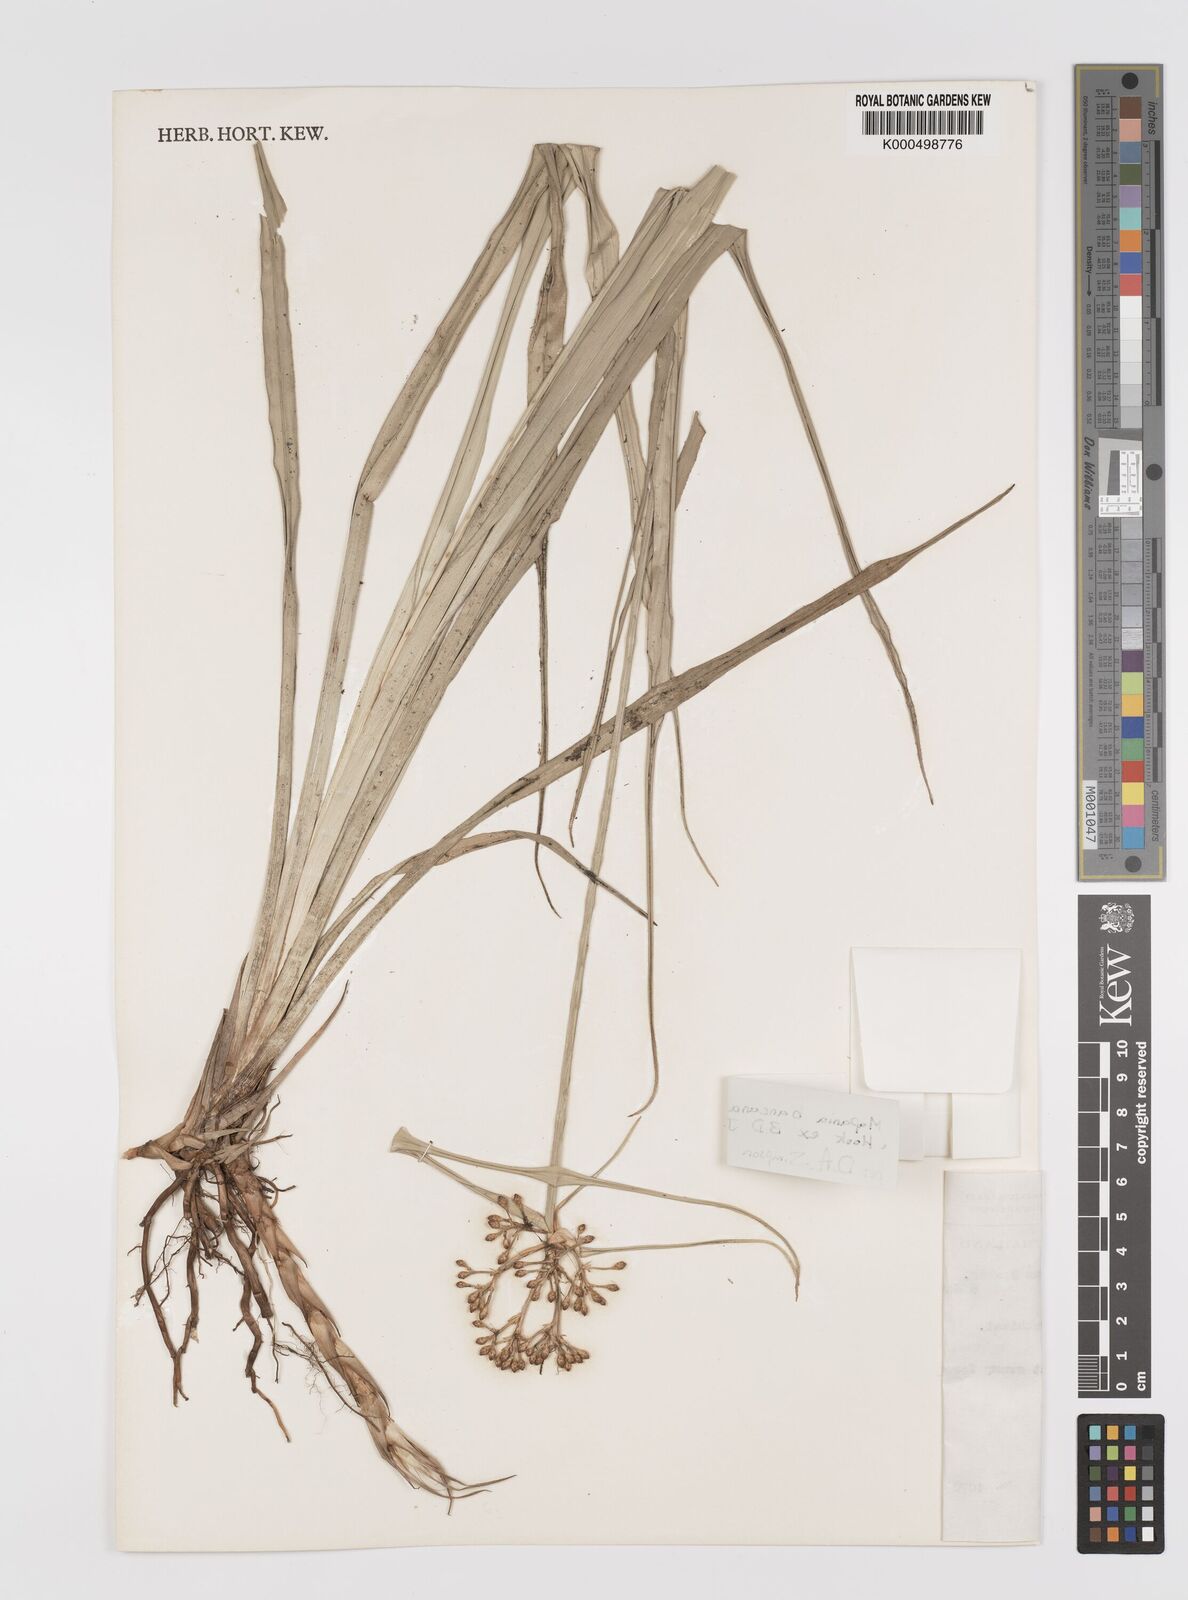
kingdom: Plantae
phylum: Tracheophyta
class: Liliopsida
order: Poales
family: Cyperaceae
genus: Mapania
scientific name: Mapania
